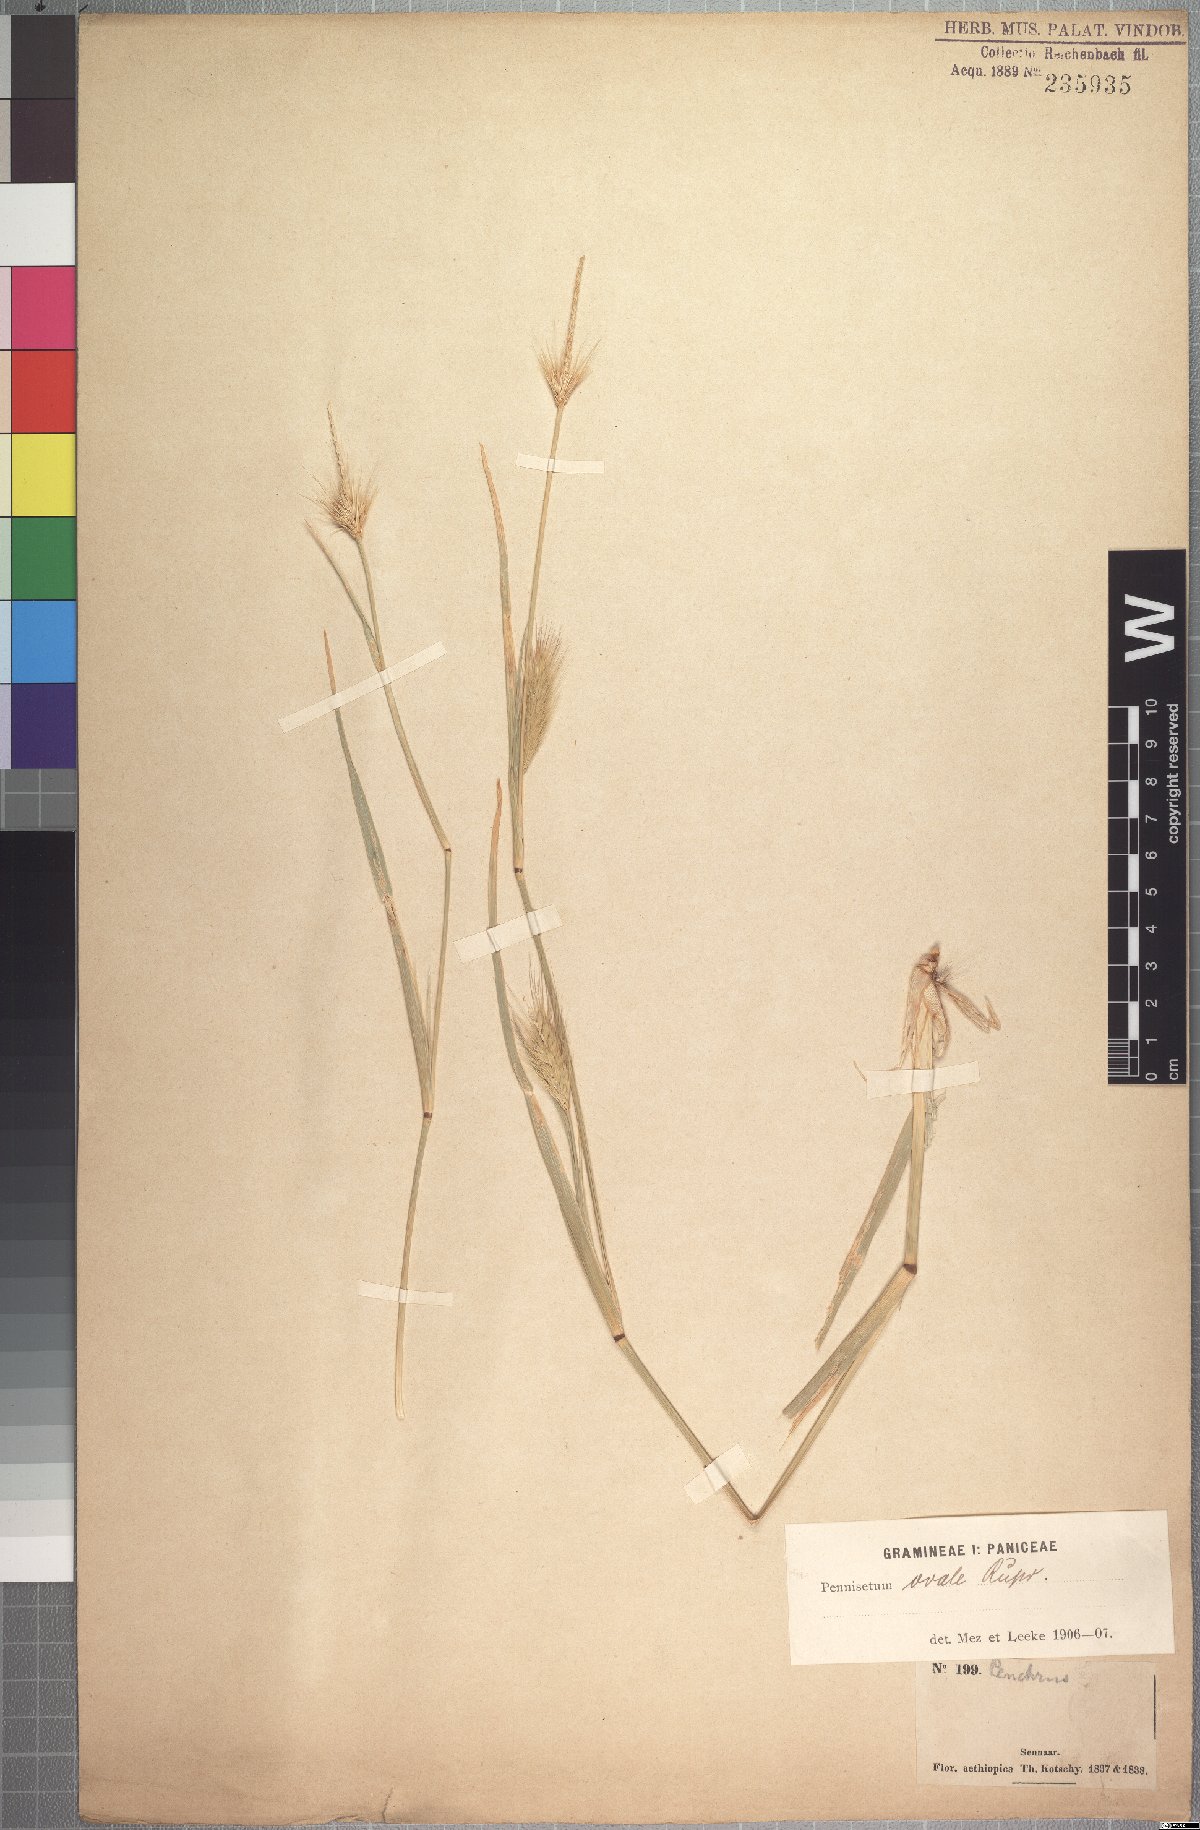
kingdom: Plantae
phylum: Tracheophyta
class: Liliopsida
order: Poales
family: Poaceae
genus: Cenchrus
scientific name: Cenchrus ramosus
